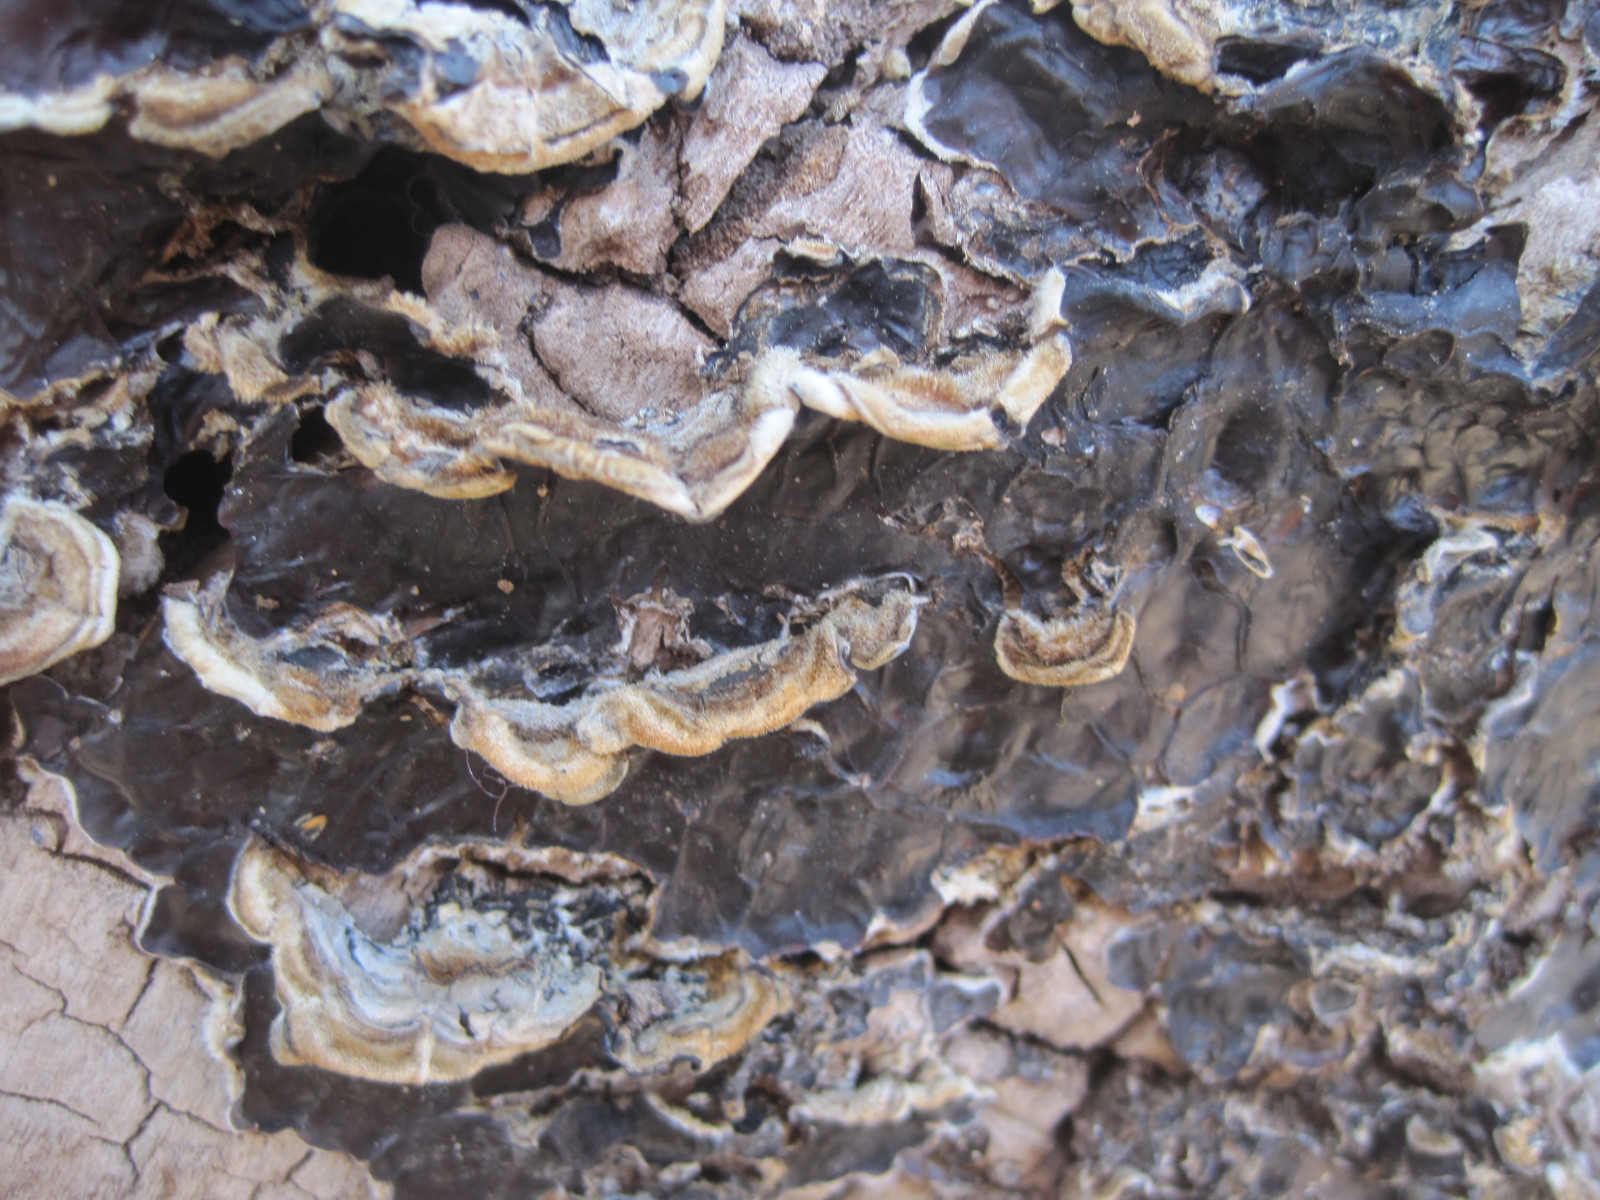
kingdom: Fungi
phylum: Basidiomycota
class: Agaricomycetes
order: Auriculariales
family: Auriculariaceae
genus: Auricularia
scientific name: Auricularia mesenterica
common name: håret judasøre
